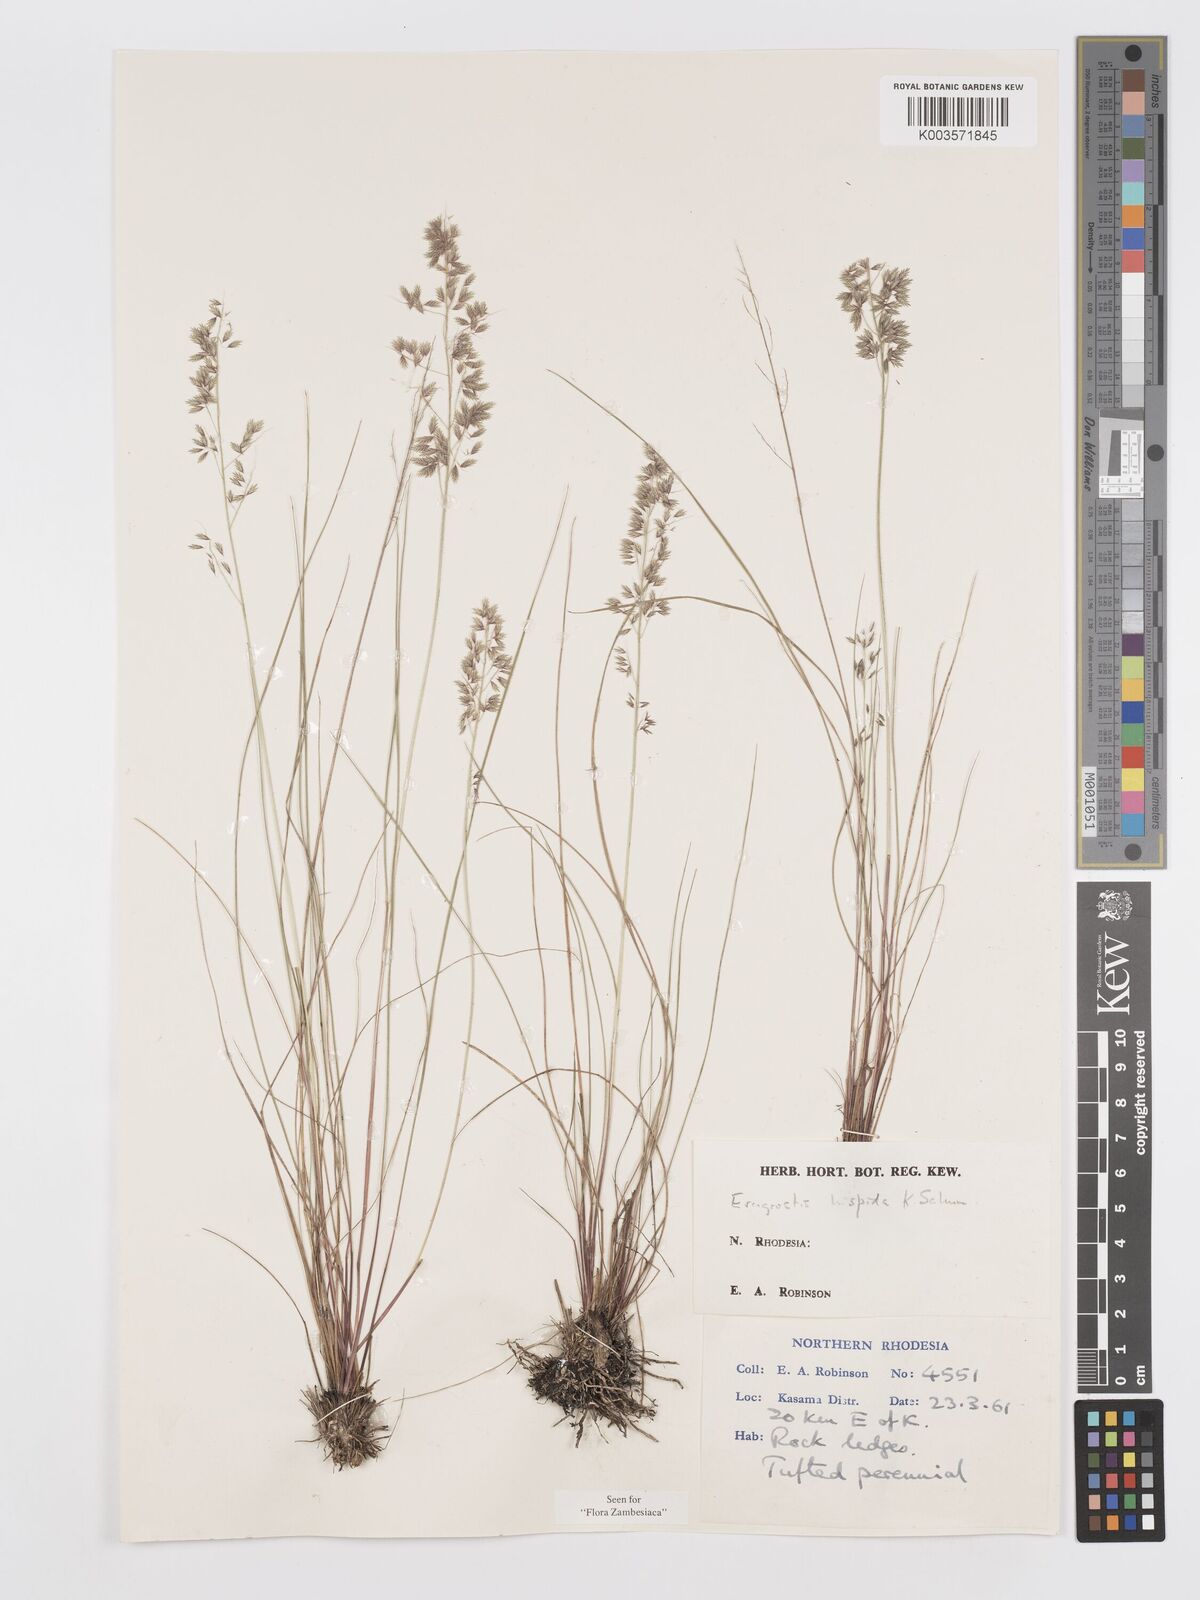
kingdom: Plantae
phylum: Tracheophyta
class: Liliopsida
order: Poales
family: Poaceae
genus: Eragrostis
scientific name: Eragrostis hispida
